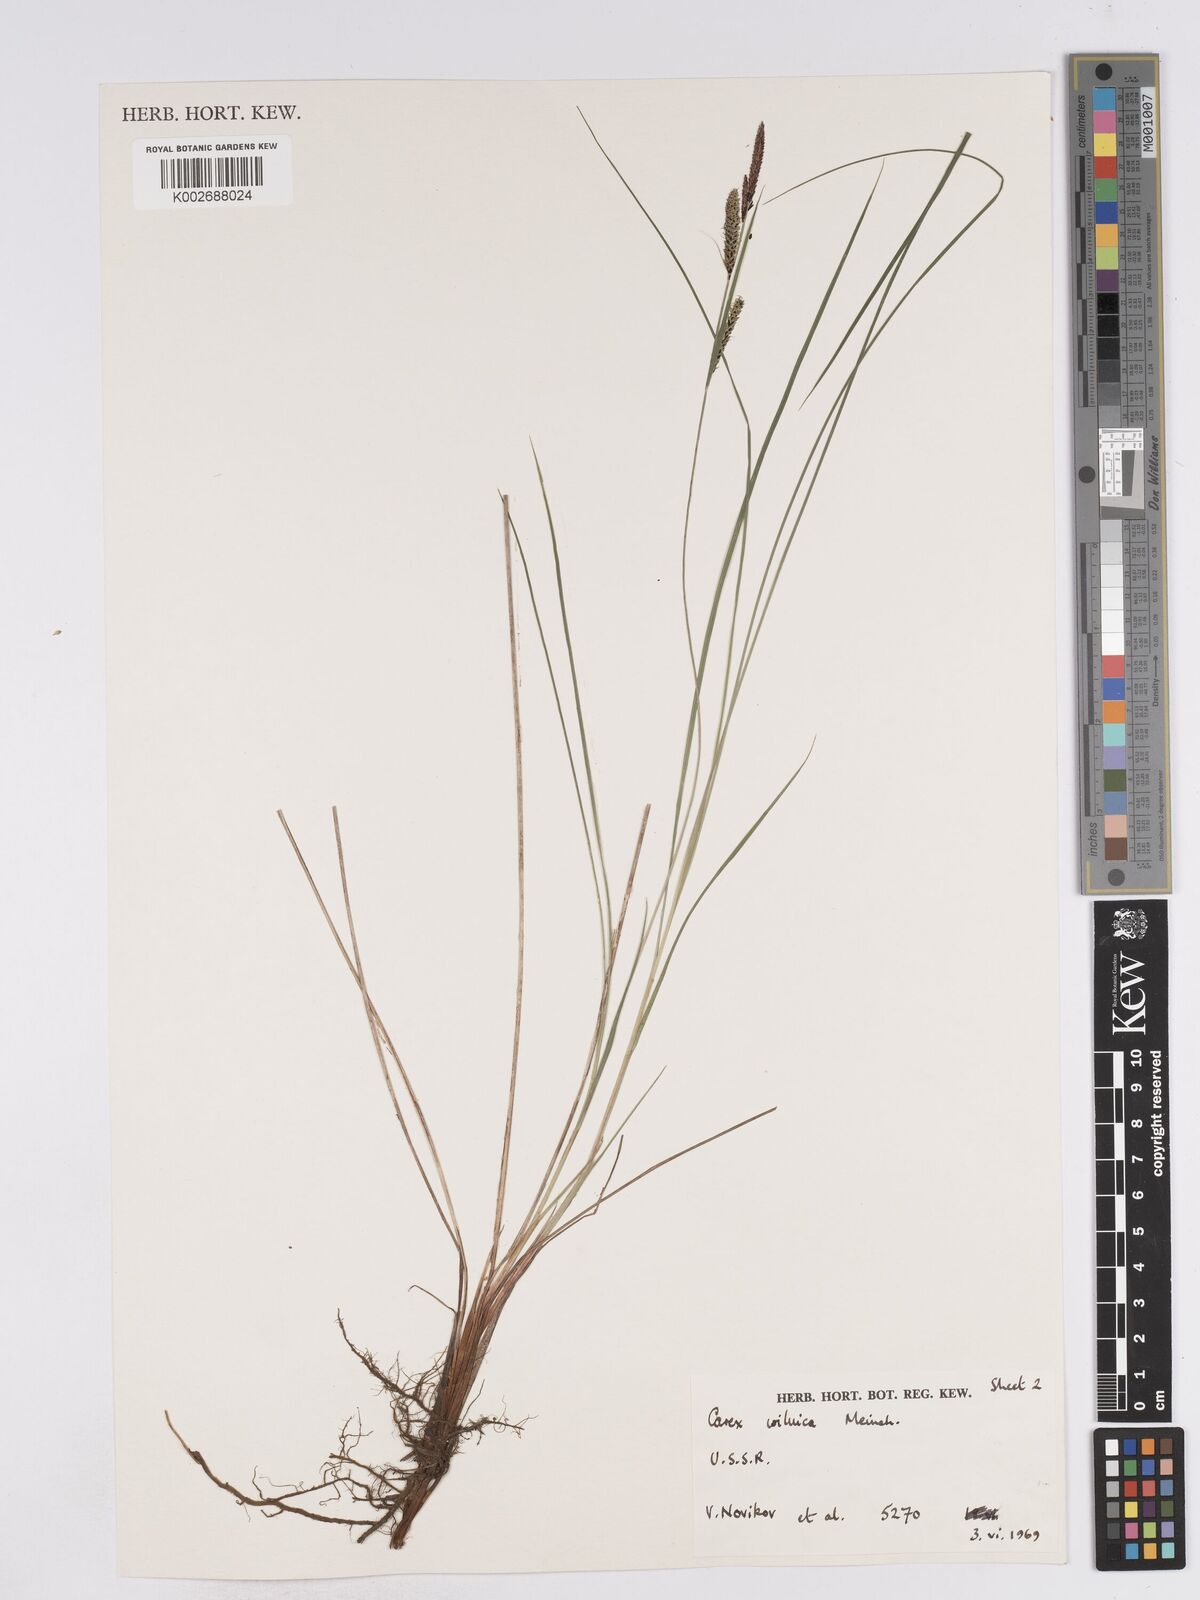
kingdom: Plantae
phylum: Tracheophyta
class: Liliopsida
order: Poales
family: Cyperaceae
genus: Carex
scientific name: Carex nigra
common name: Common sedge
